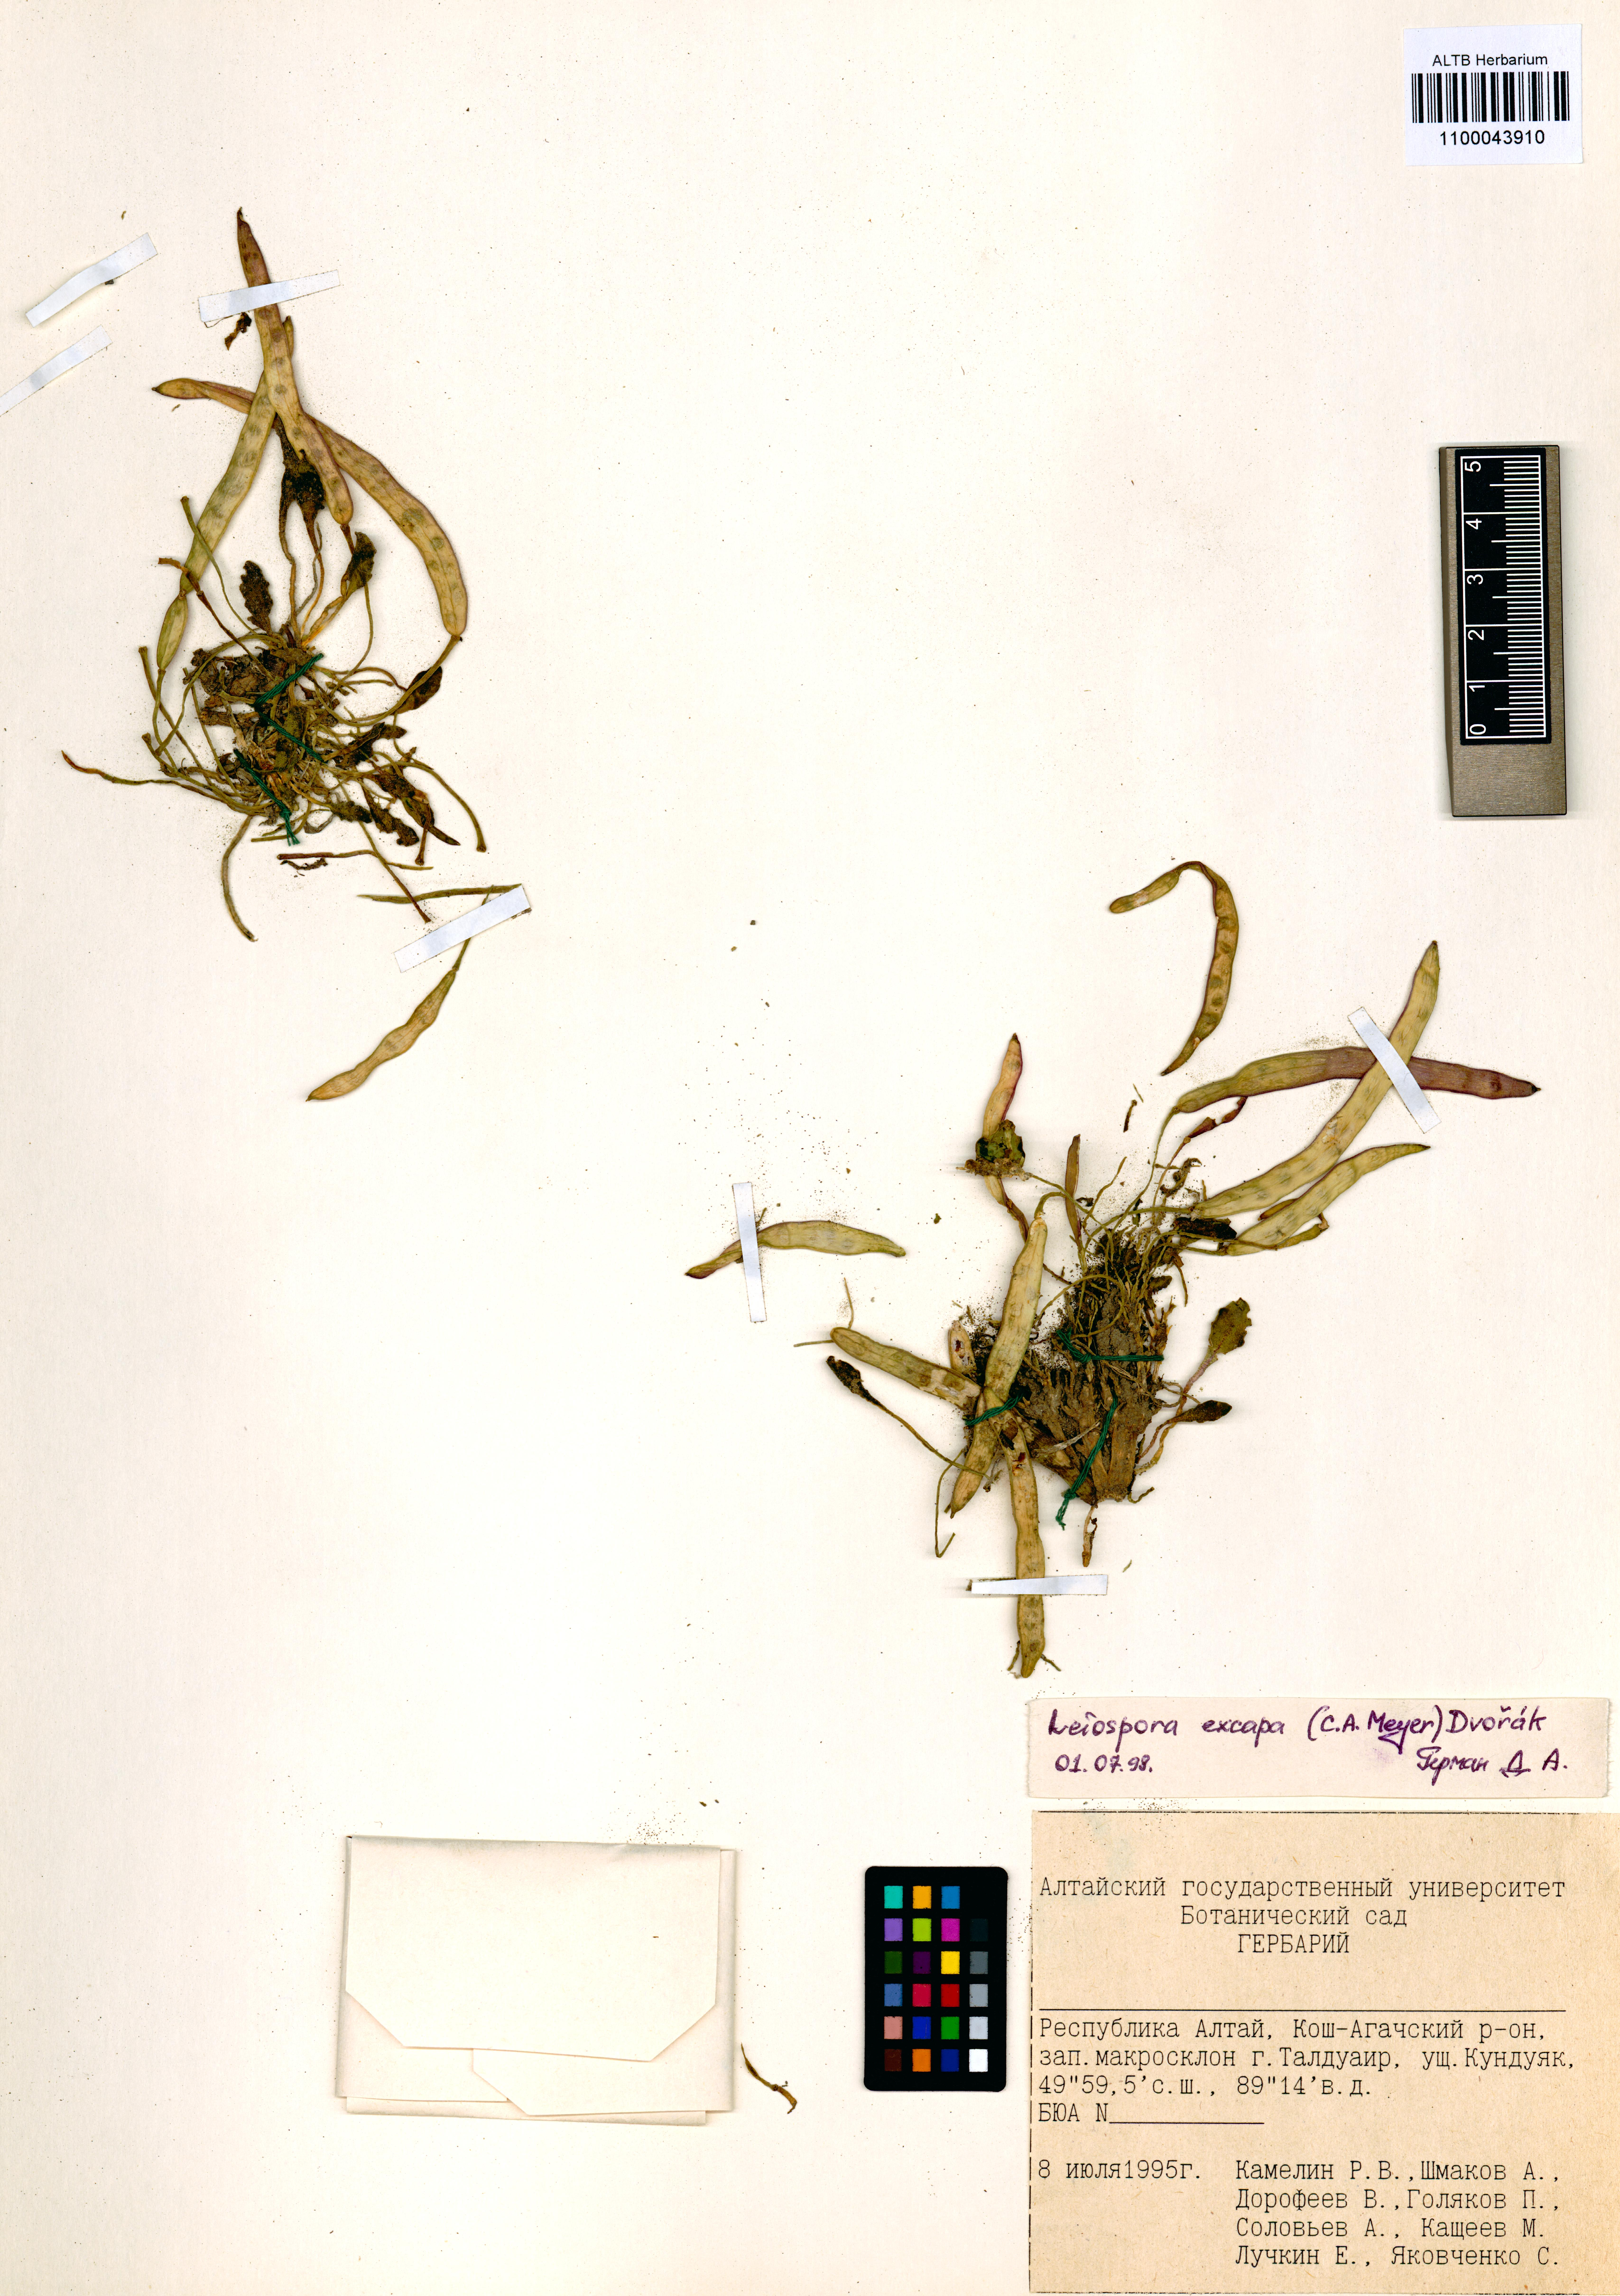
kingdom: Plantae
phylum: Tracheophyta
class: Magnoliopsida
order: Brassicales
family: Brassicaceae
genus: Leiospora
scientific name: Leiospora exscapa
